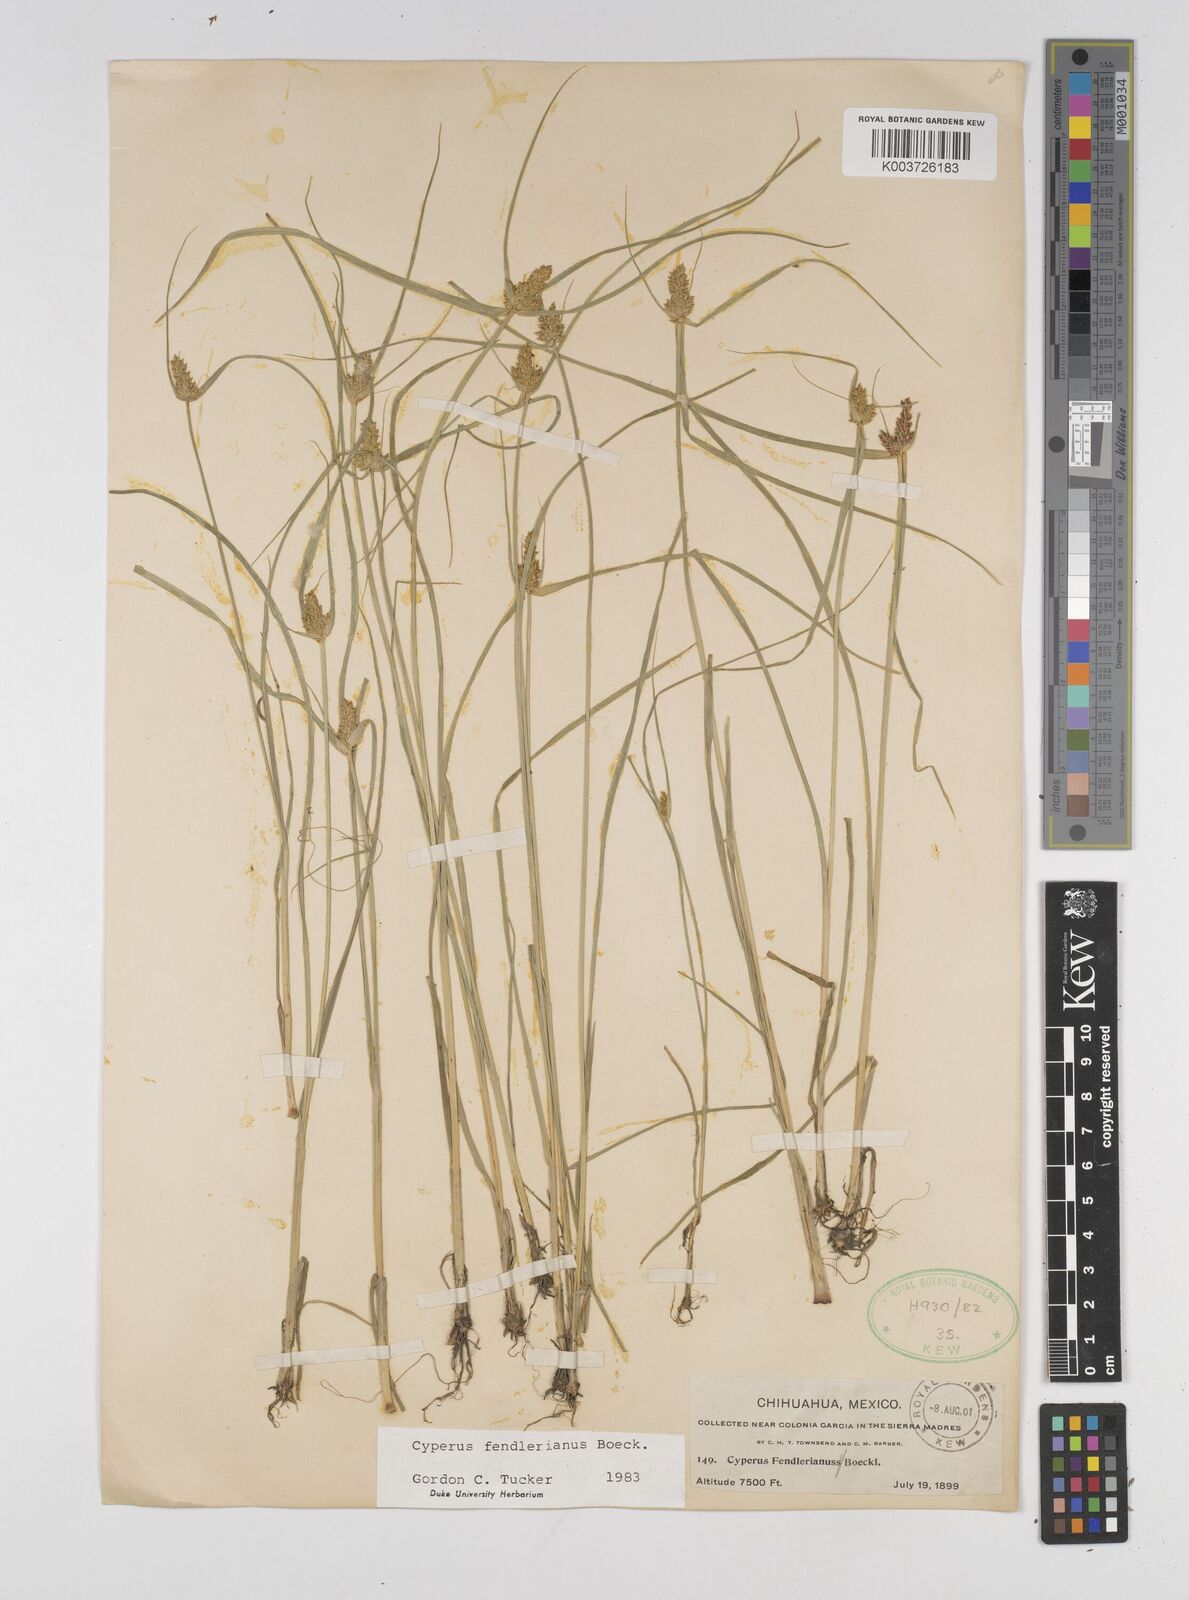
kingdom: Plantae
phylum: Tracheophyta
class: Liliopsida
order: Poales
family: Cyperaceae
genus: Cyperus
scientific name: Cyperus fendlerianus
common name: Fendler flat sedge
